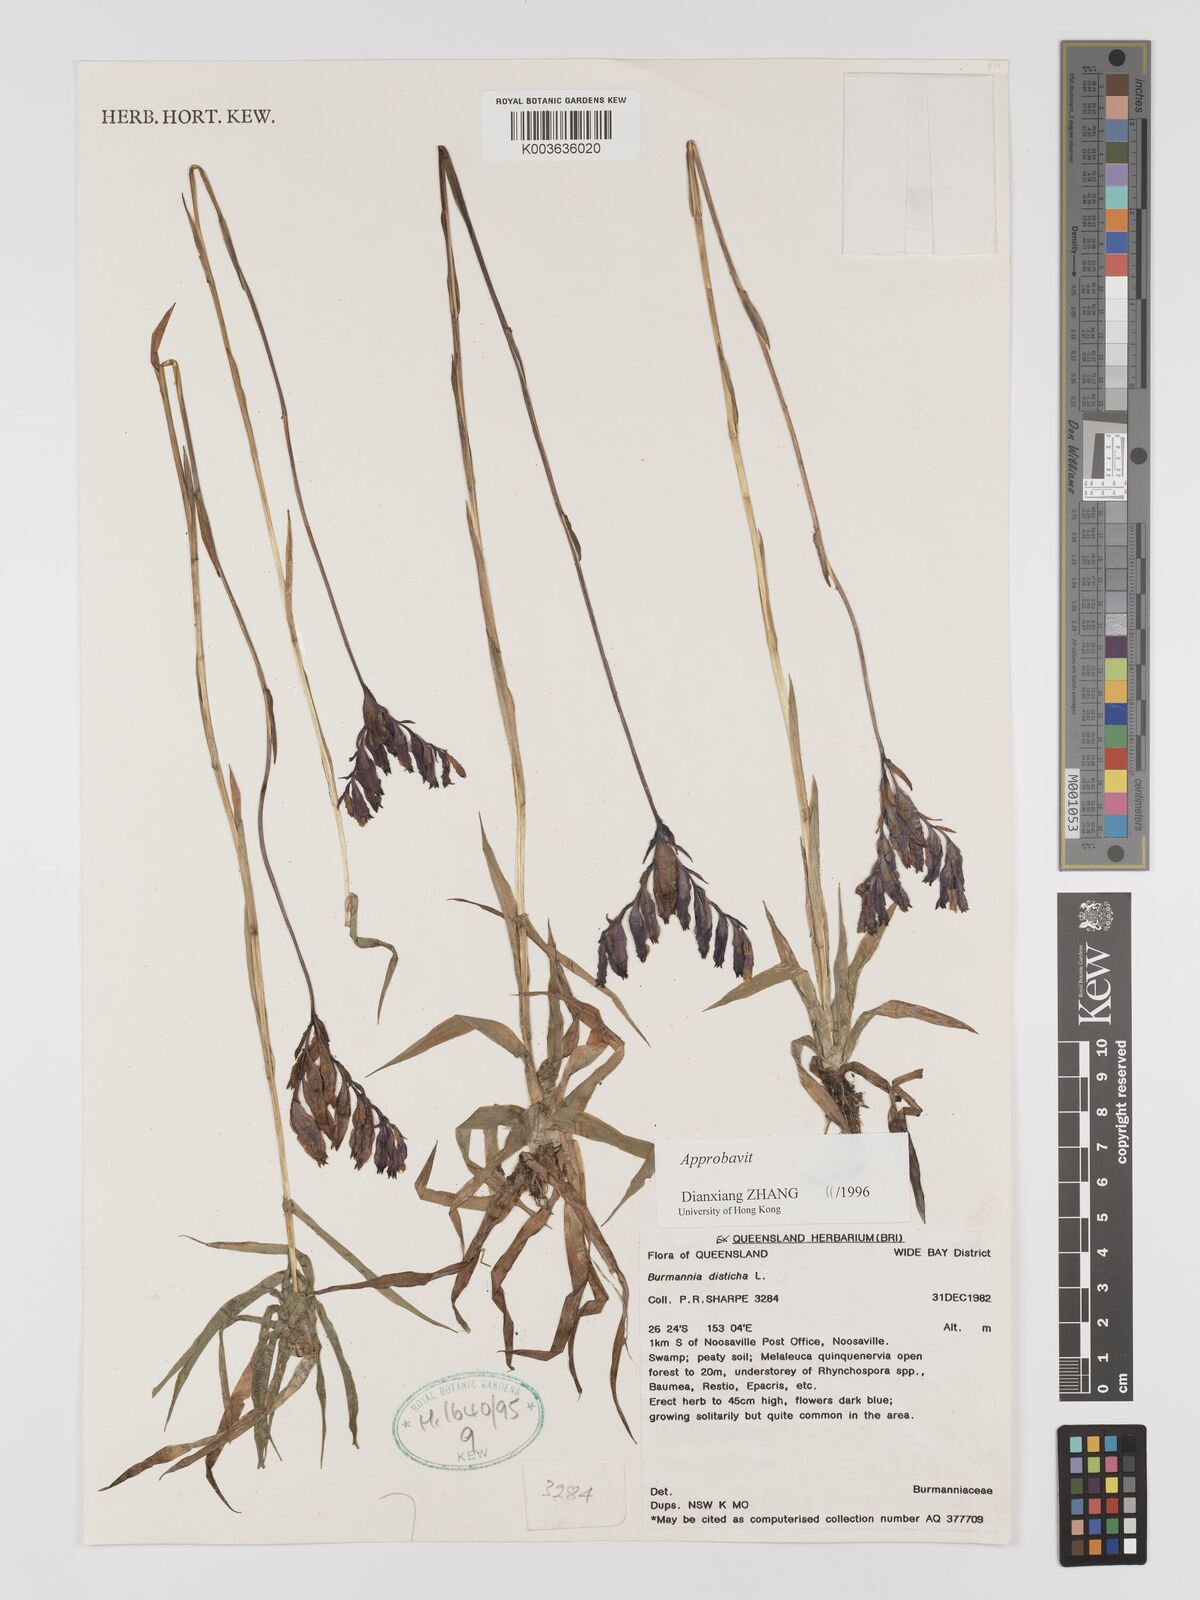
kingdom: Plantae
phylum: Tracheophyta
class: Liliopsida
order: Dioscoreales
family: Burmanniaceae
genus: Burmannia
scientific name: Burmannia disticha
